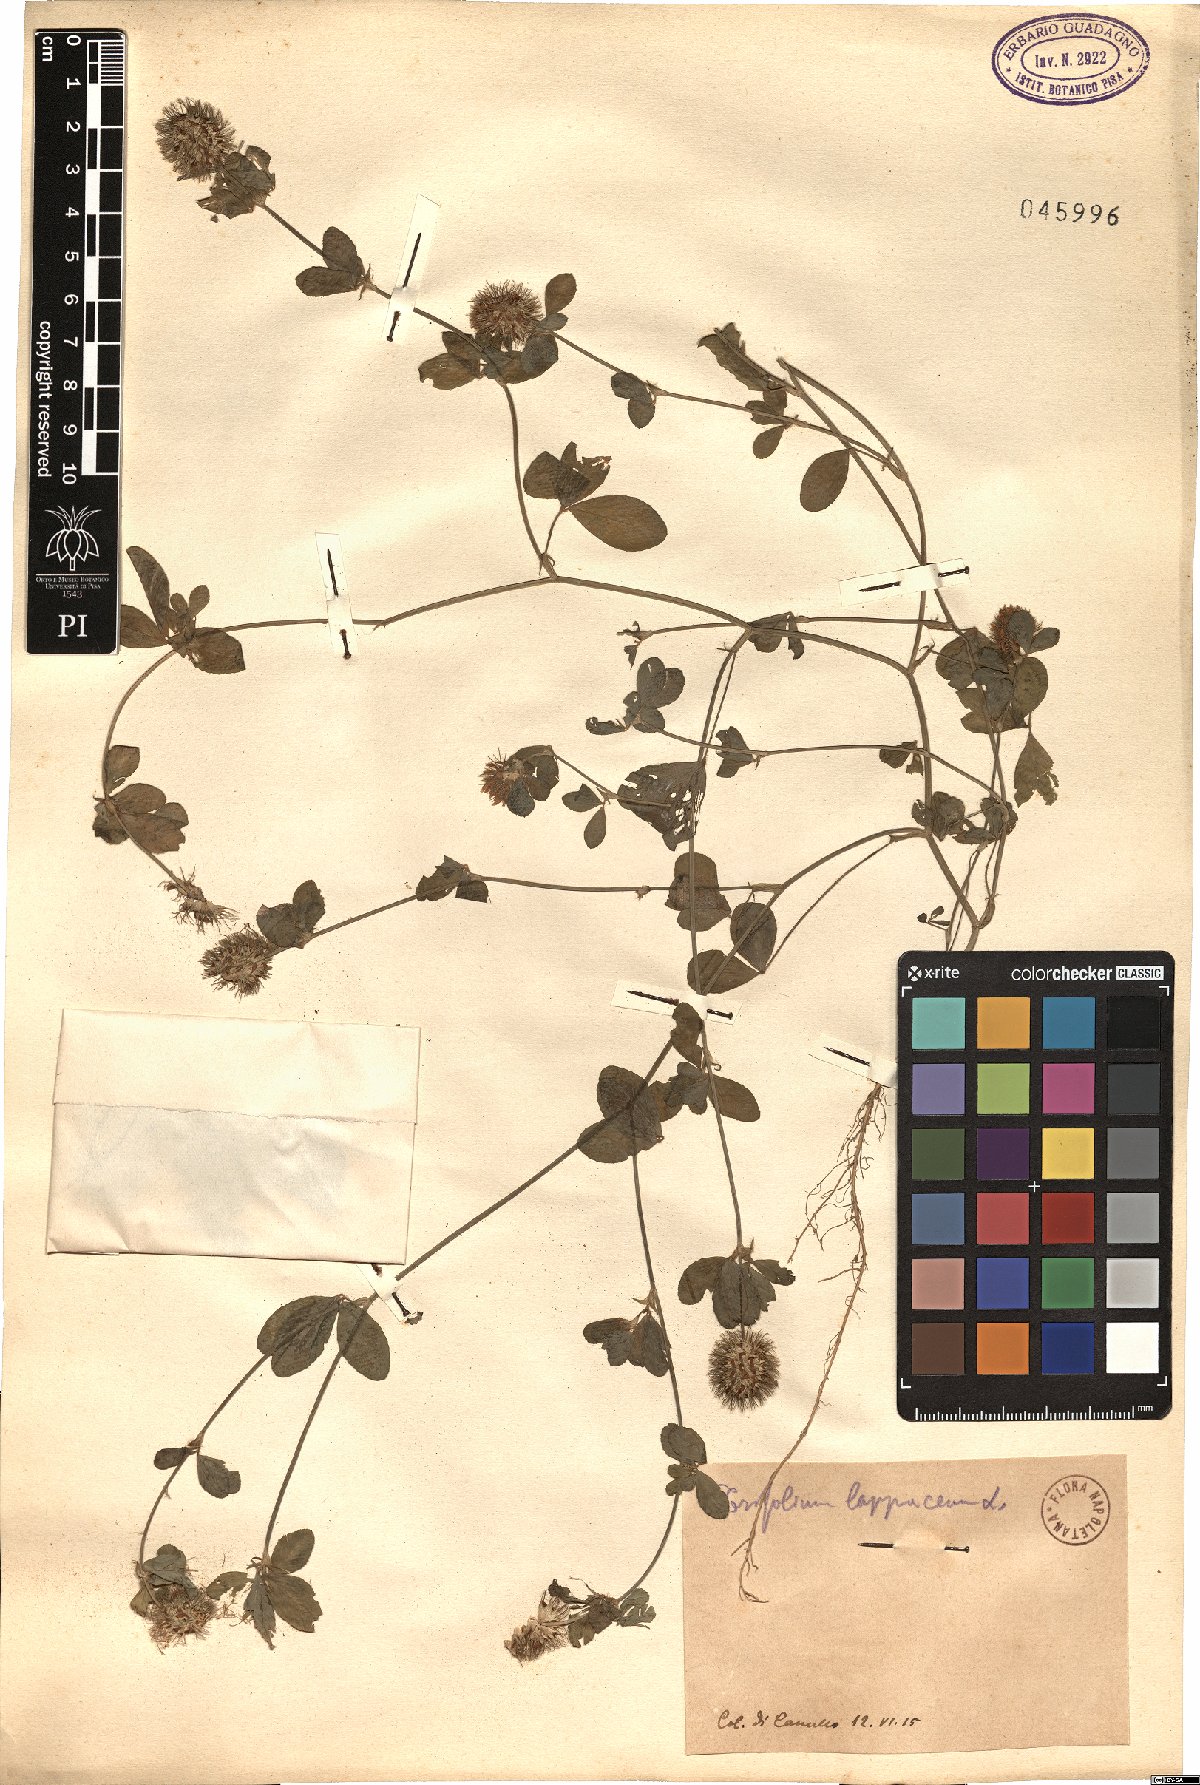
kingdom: Plantae
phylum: Tracheophyta
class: Magnoliopsida
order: Fabales
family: Fabaceae
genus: Trifolium
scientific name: Trifolium lappaceum
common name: Bur clover
